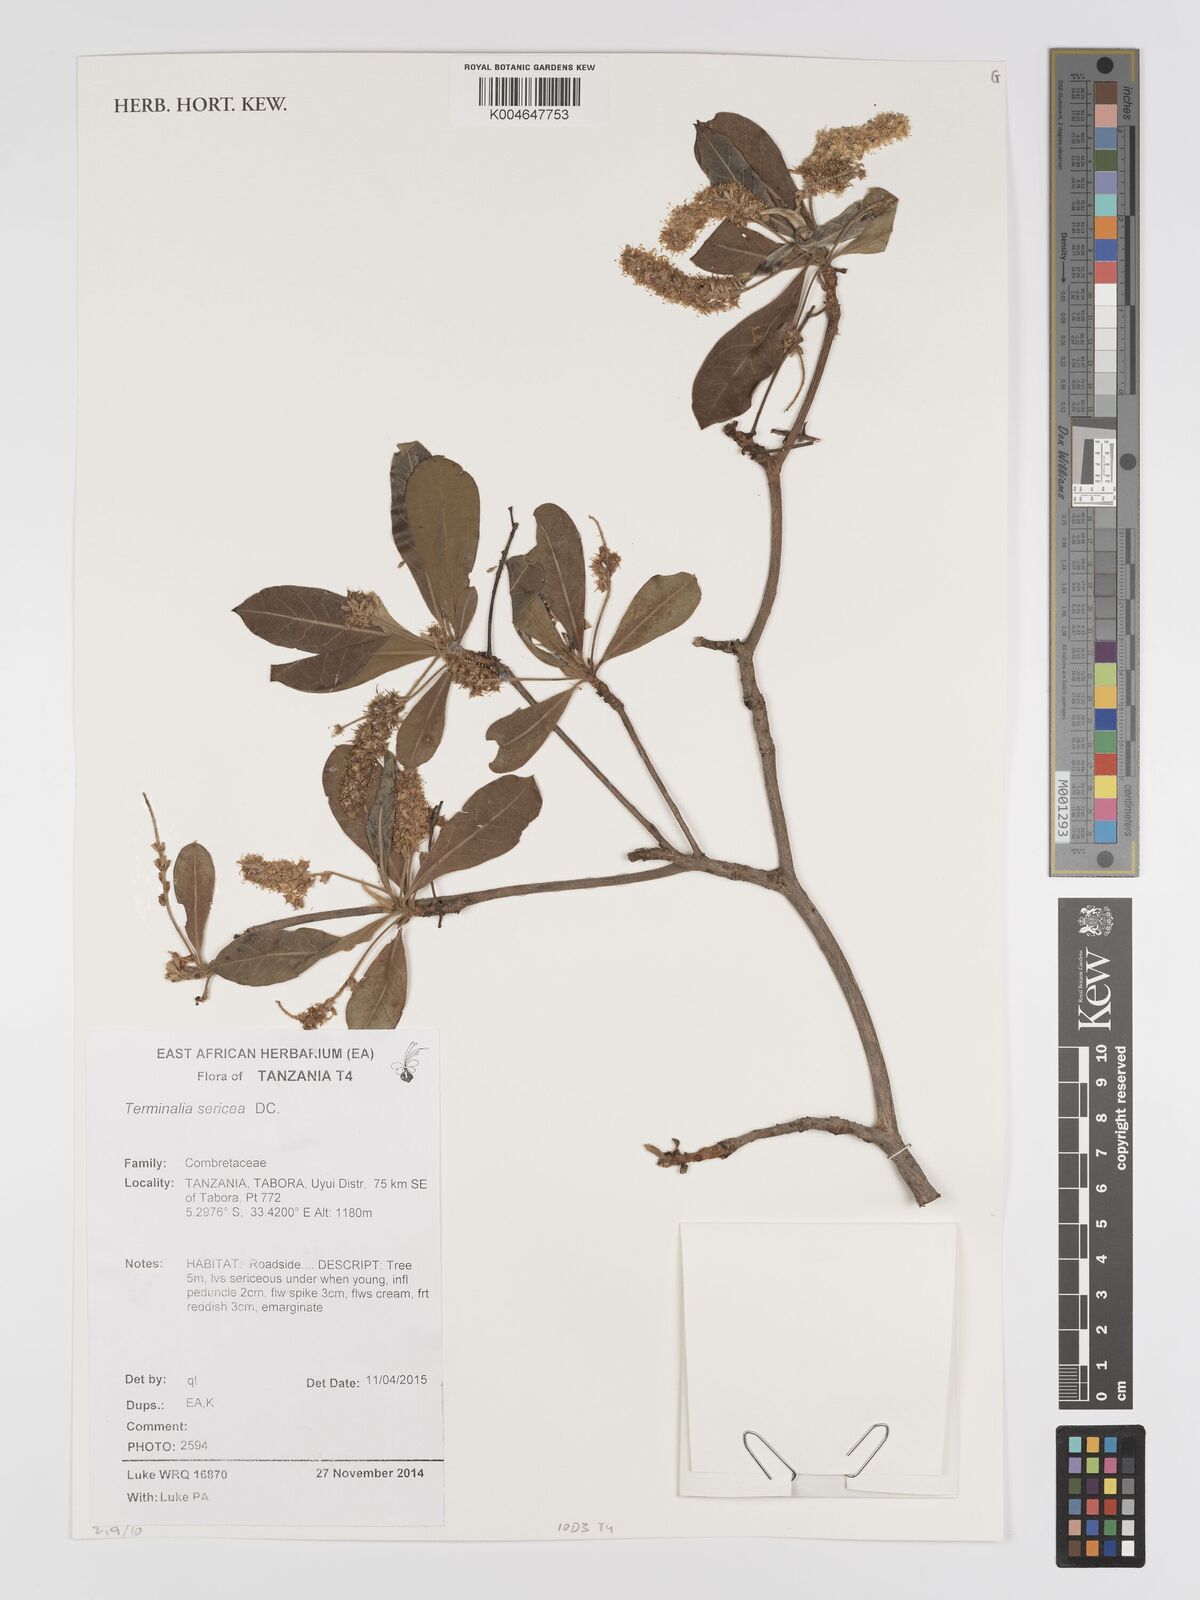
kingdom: Plantae
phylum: Tracheophyta
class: Magnoliopsida
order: Myrtales
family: Combretaceae
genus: Terminalia
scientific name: Terminalia
